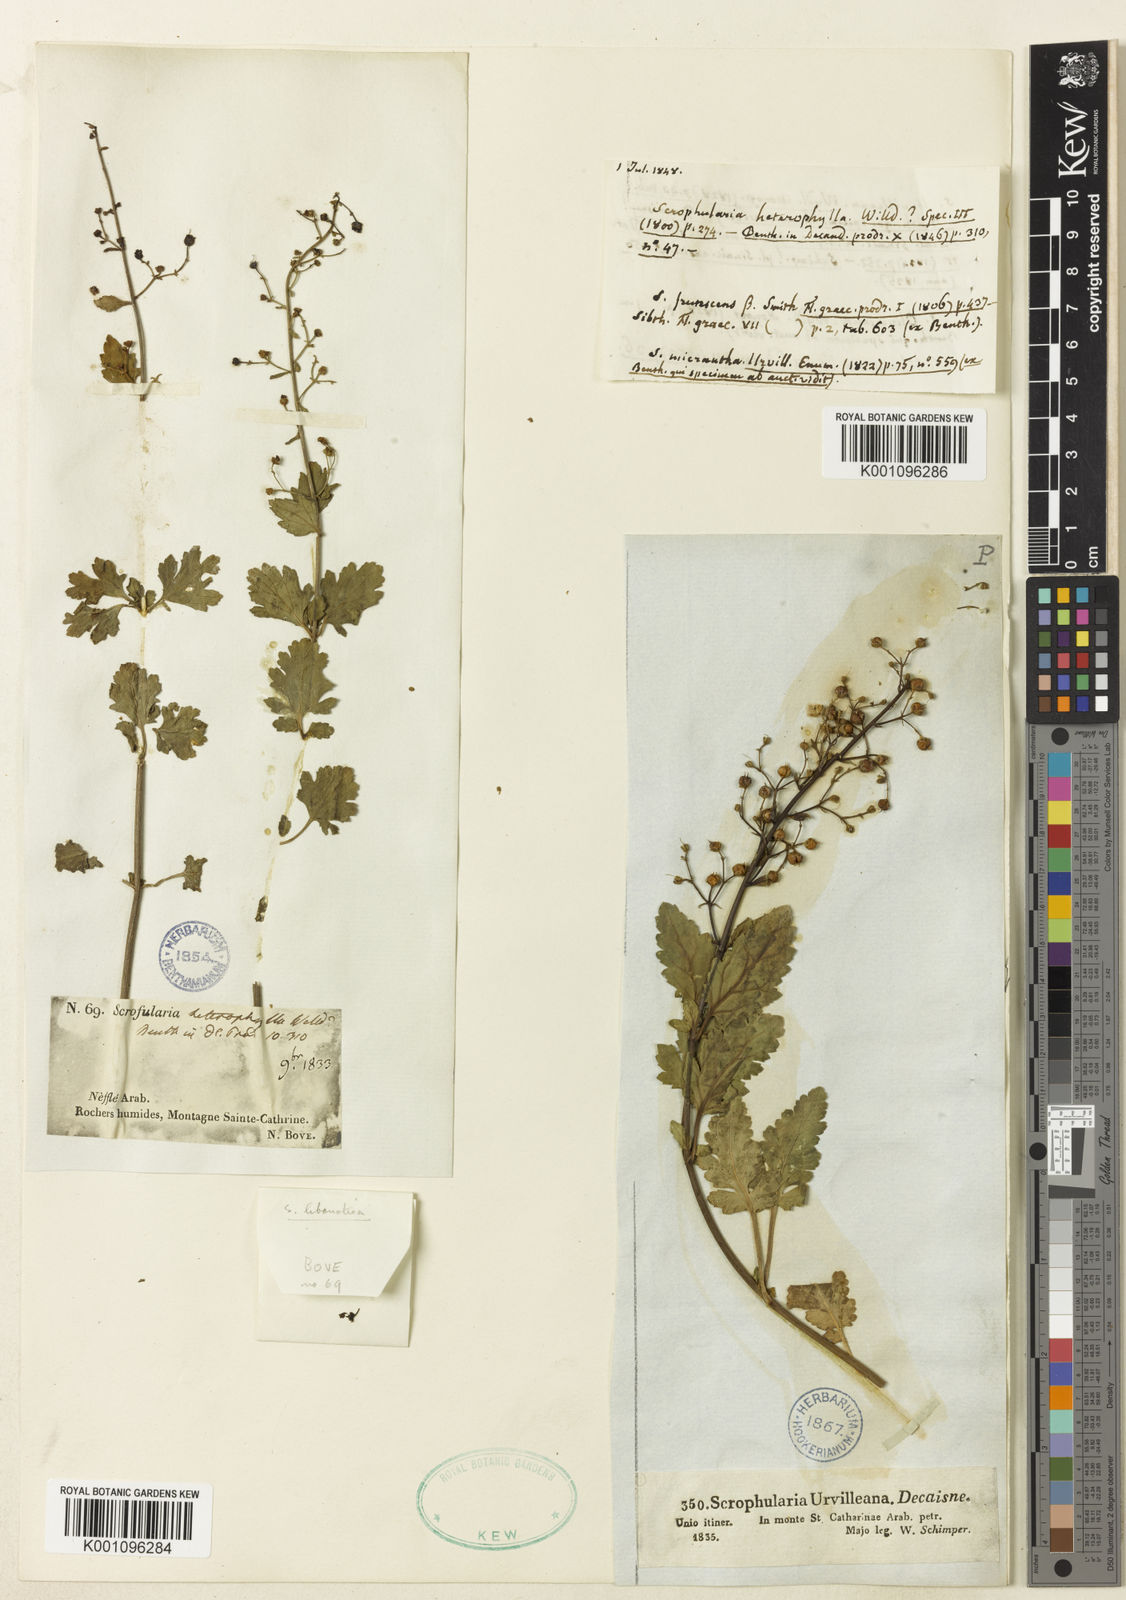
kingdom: Plantae
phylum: Tracheophyta
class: Magnoliopsida
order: Lamiales
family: Scrophulariaceae
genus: Scrophularia
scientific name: Scrophularia heterophylla
